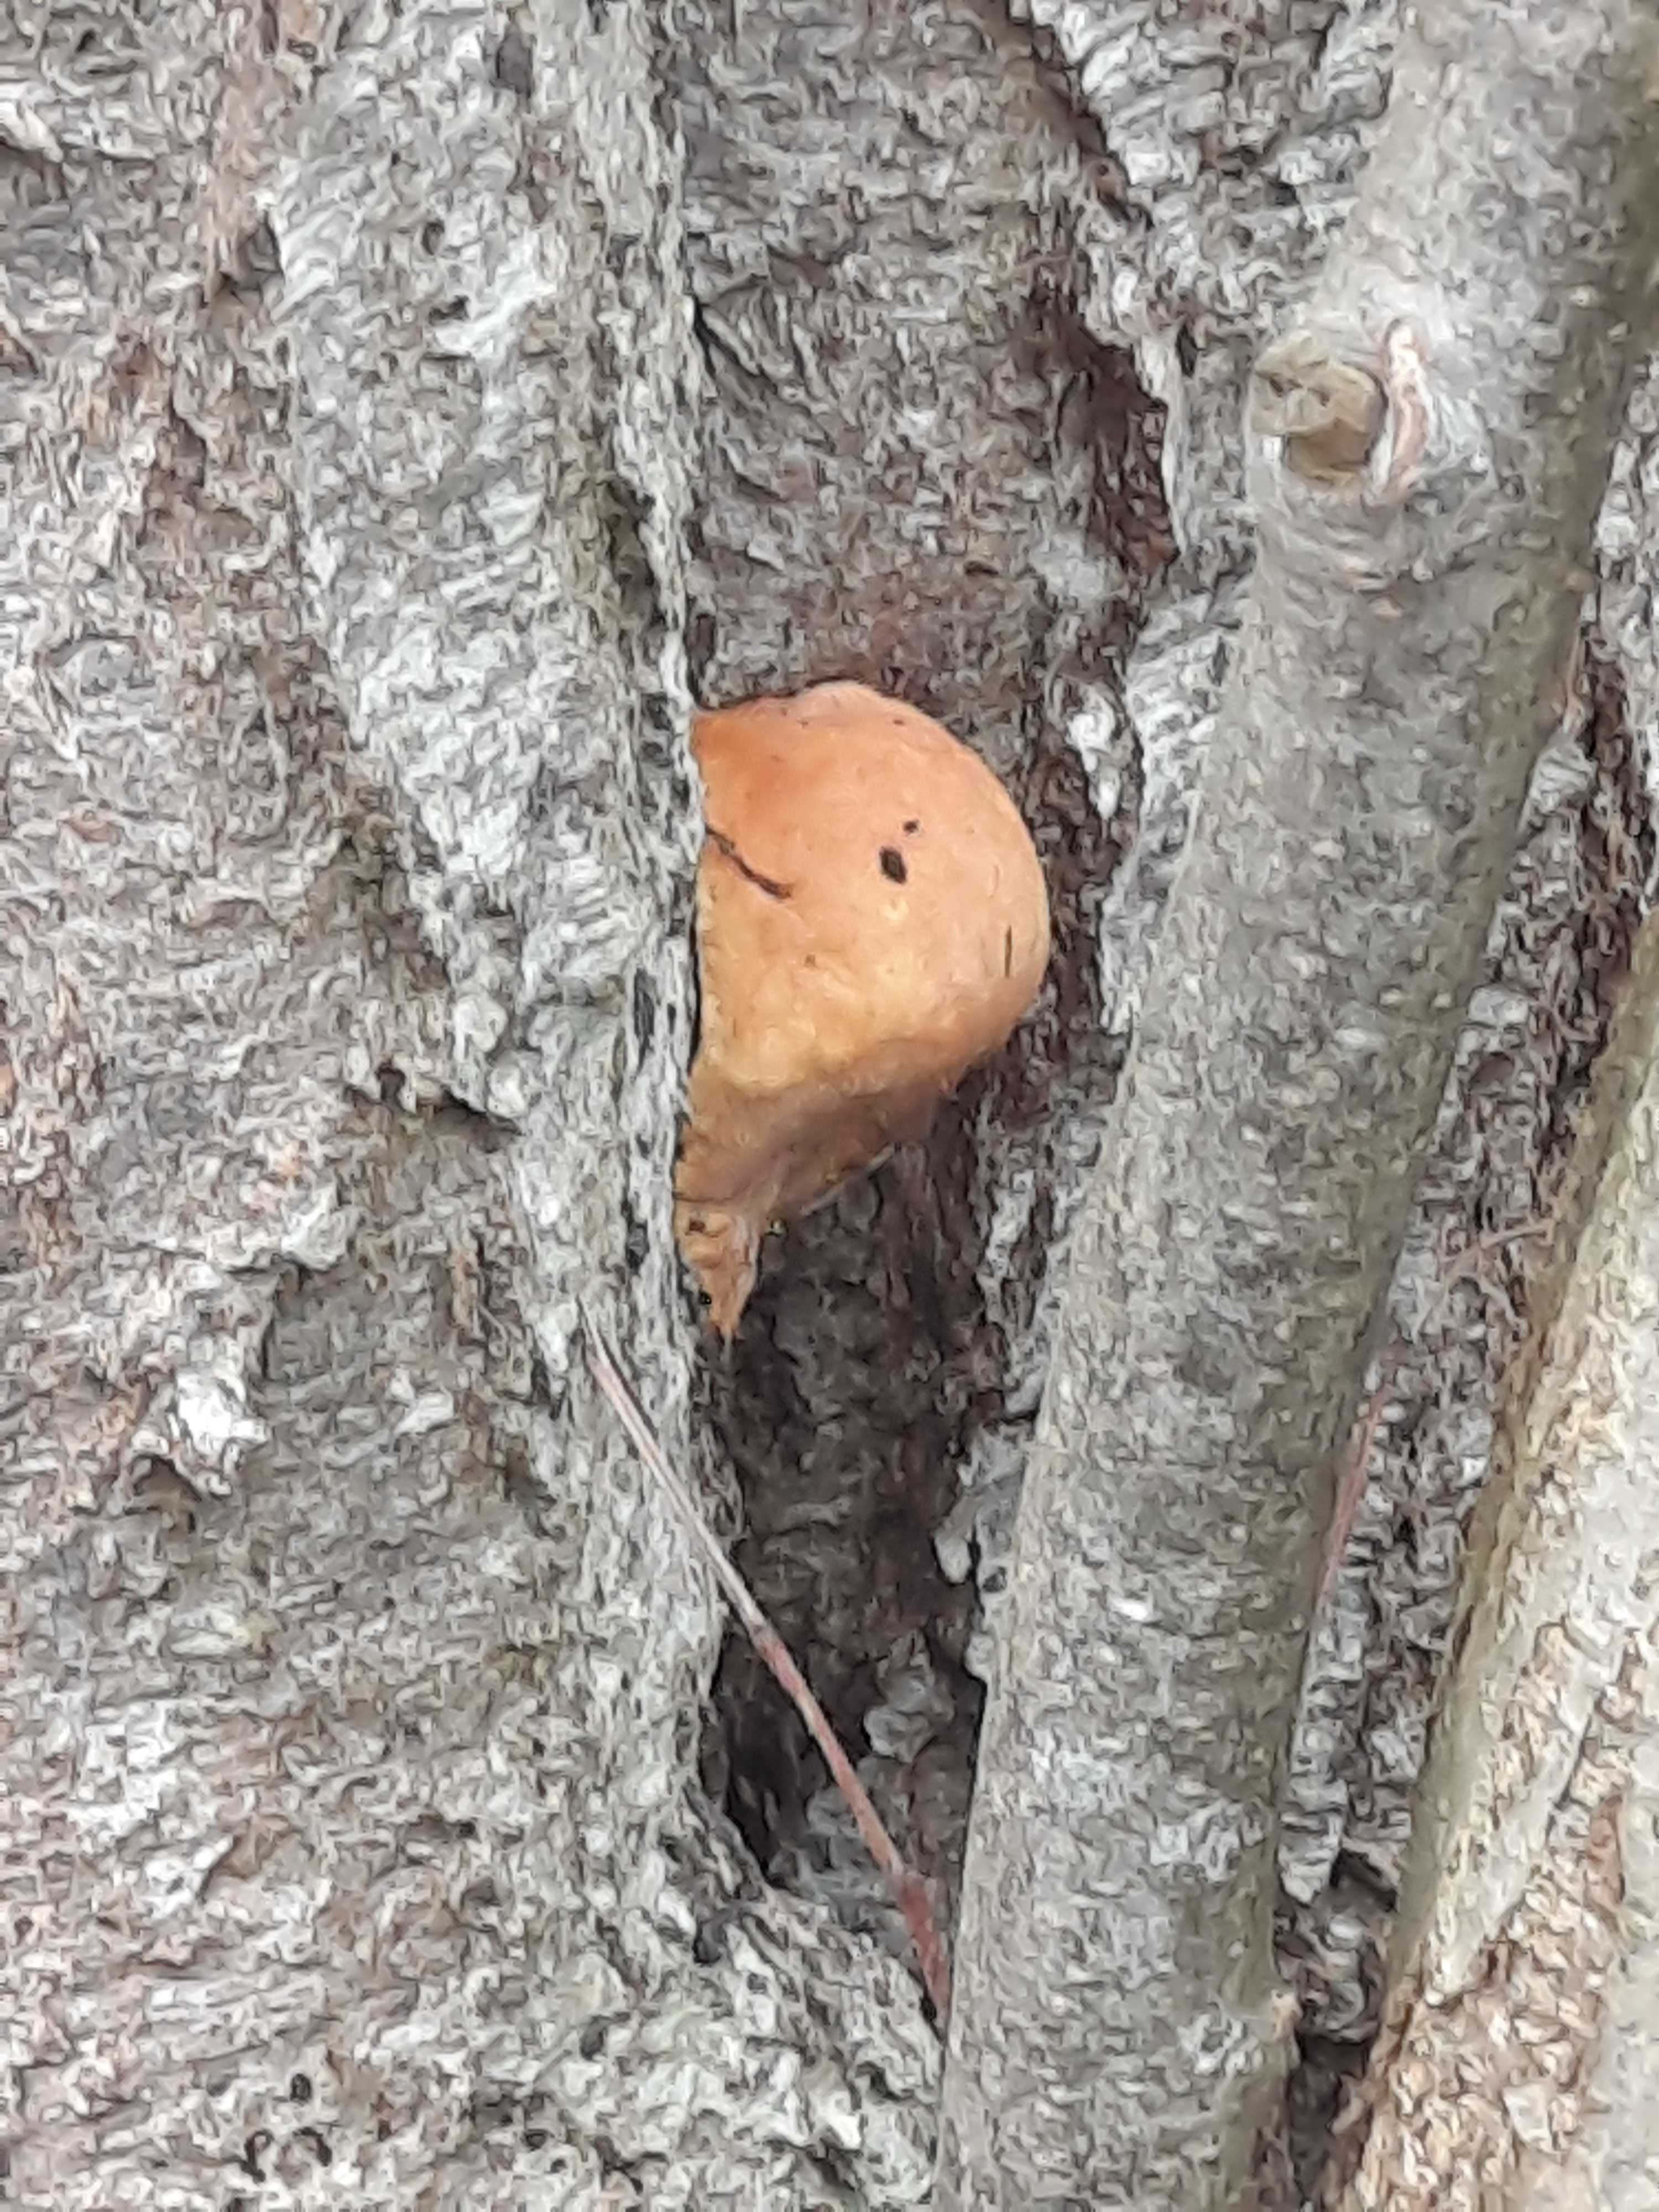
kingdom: Fungi
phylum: Basidiomycota
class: Agaricomycetes
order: Polyporales
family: Fomitopsidaceae
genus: Fomitopsis
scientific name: Fomitopsis pinicola
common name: randbæltet hovporesvamp
